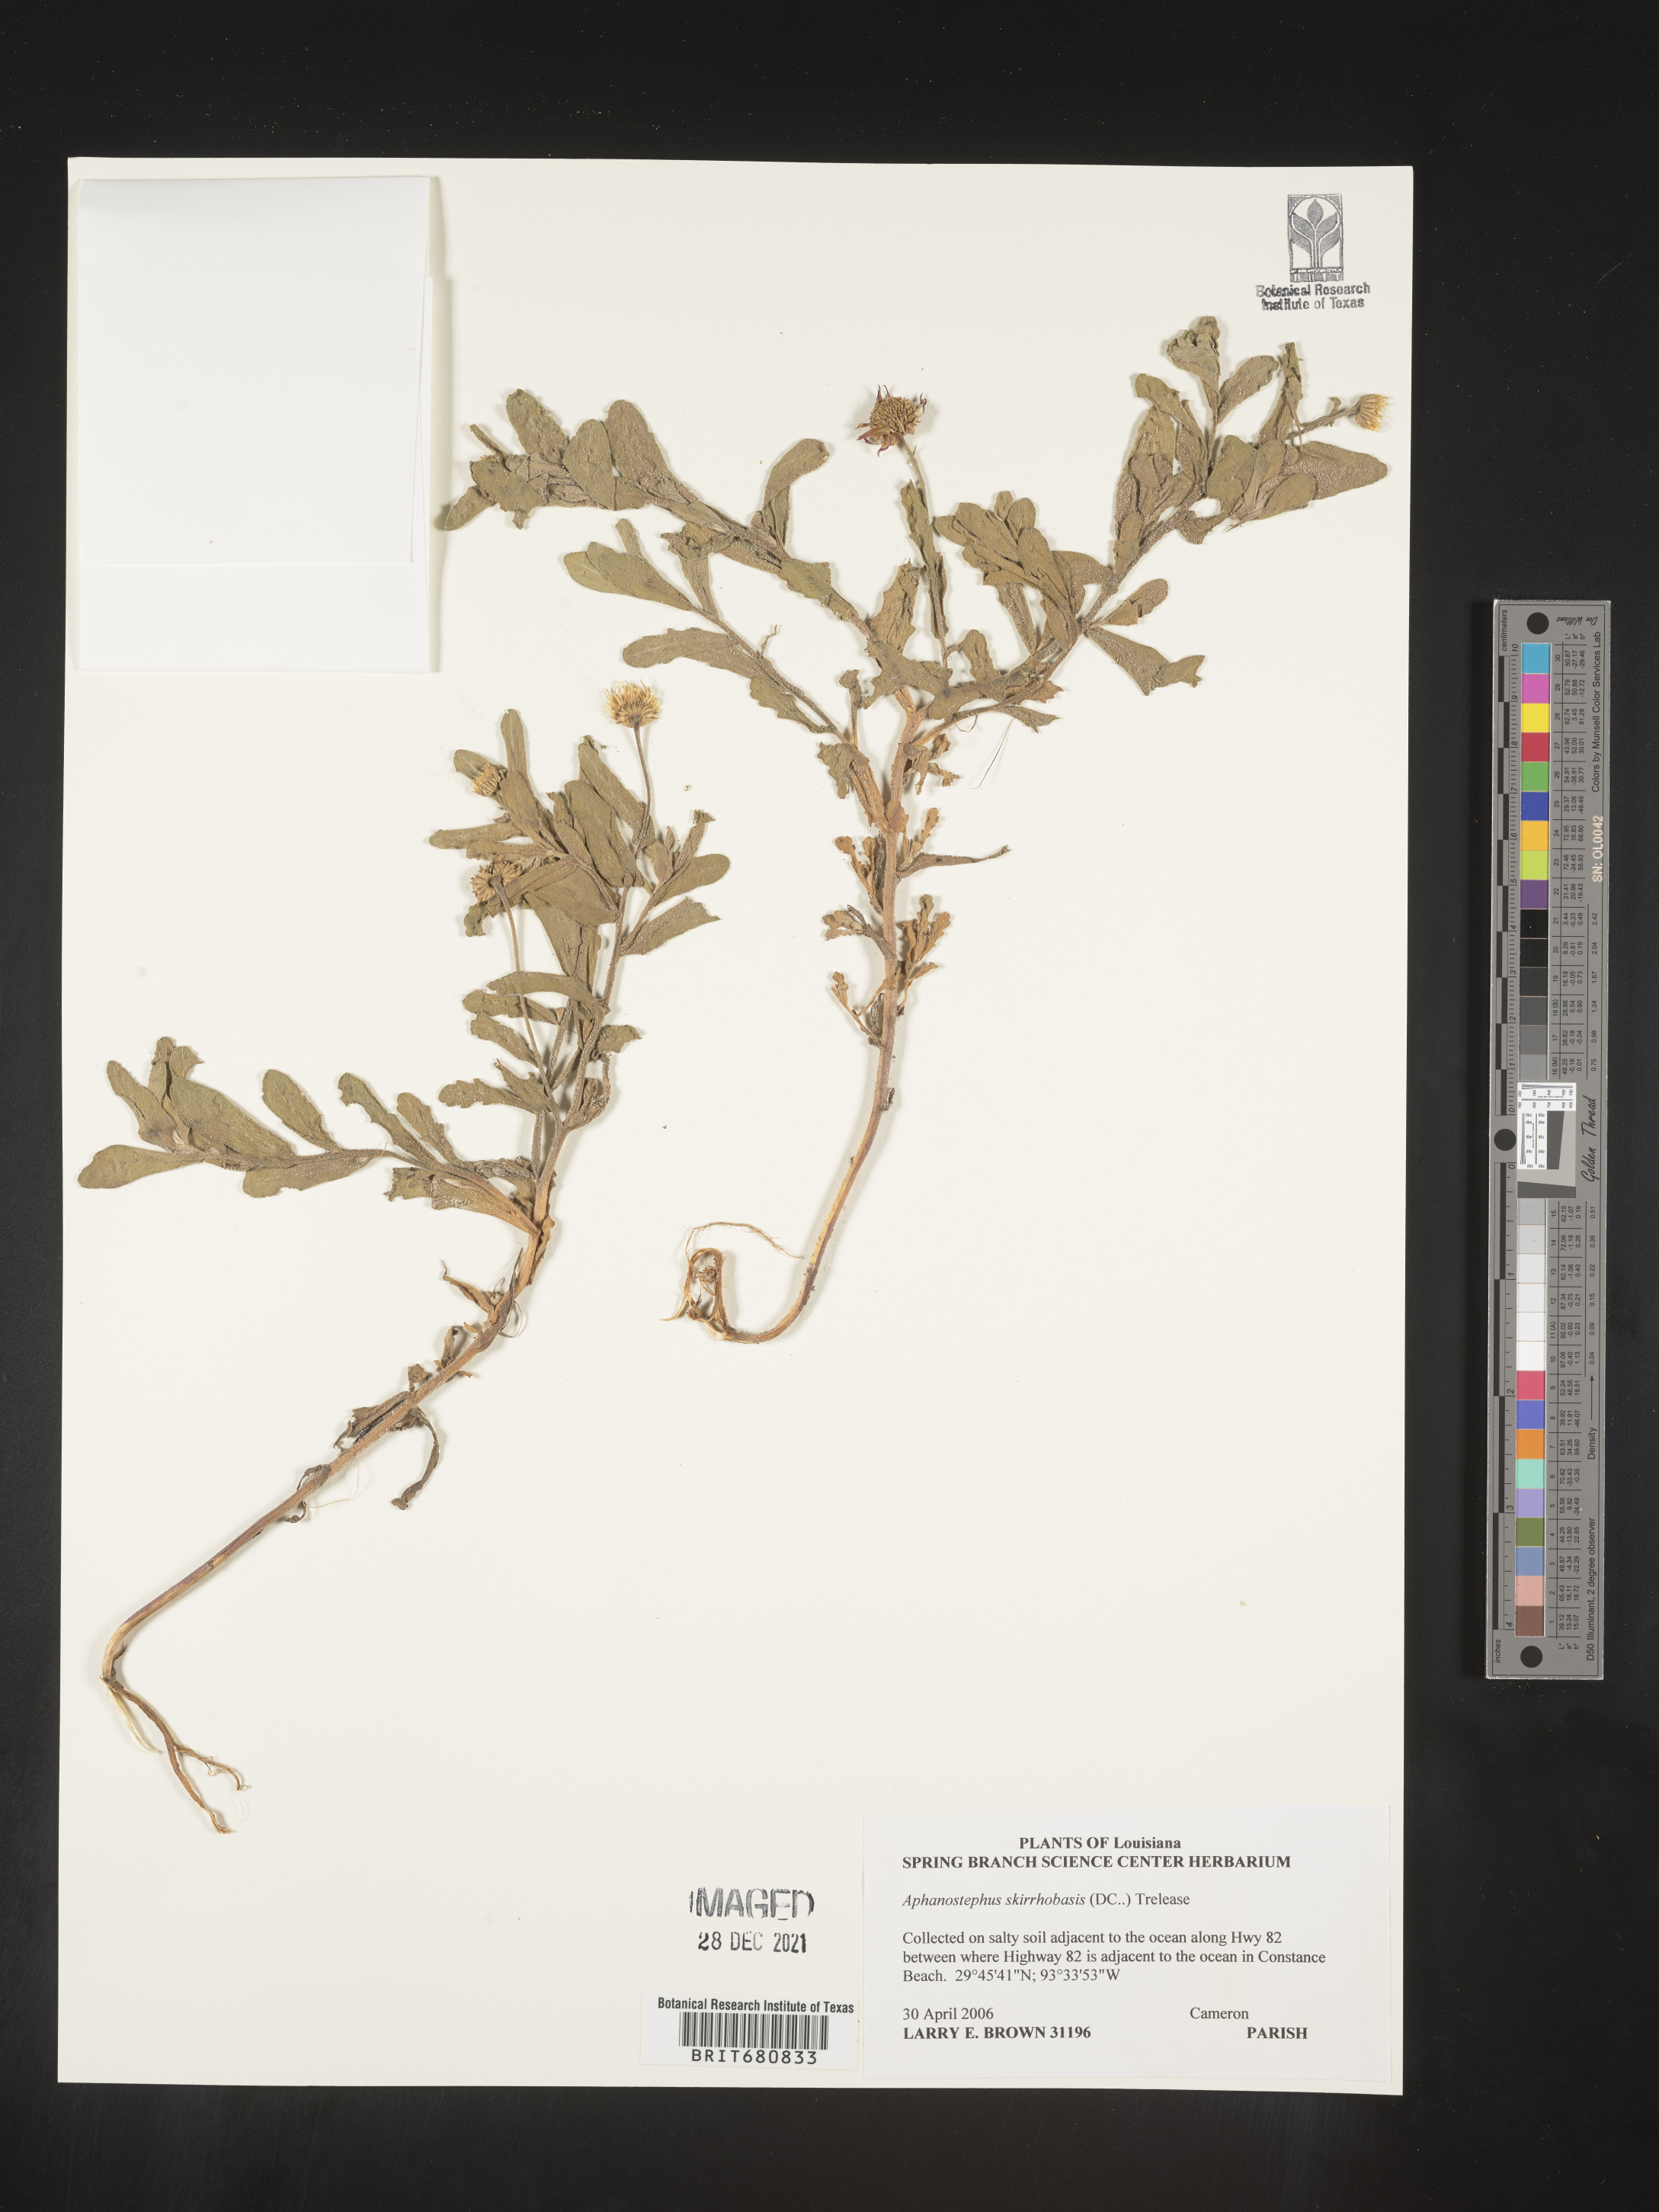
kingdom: Plantae
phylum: Tracheophyta
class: Magnoliopsida
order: Asterales
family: Asteraceae
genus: Aphanostephus
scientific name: Aphanostephus skirrhobasis
